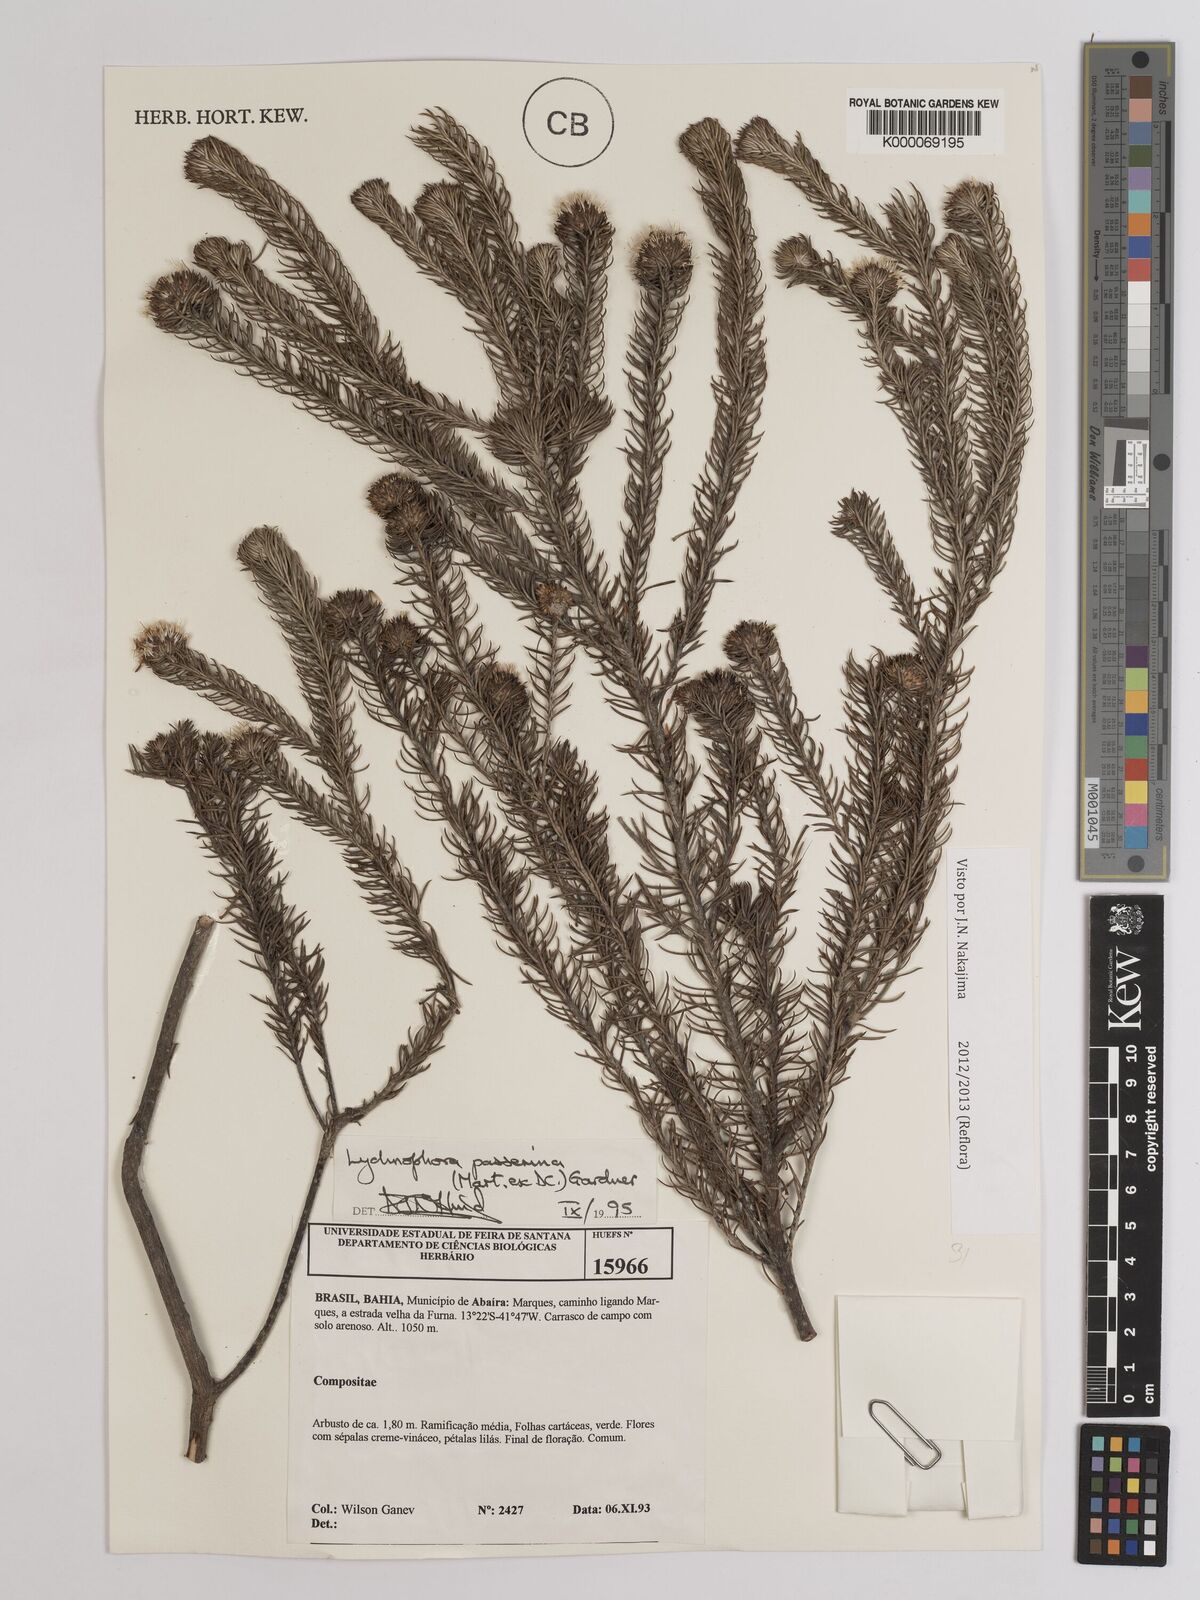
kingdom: Plantae
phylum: Tracheophyta
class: Magnoliopsida
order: Asterales
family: Asteraceae
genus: Lychnophora
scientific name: Lychnophora passerina
